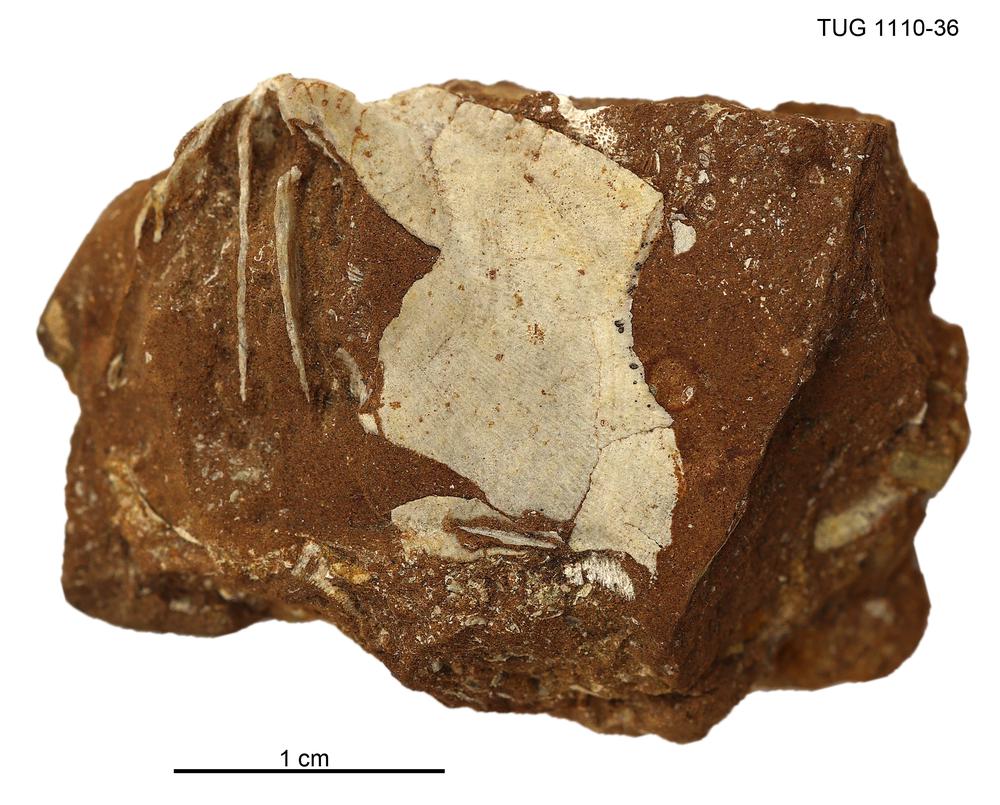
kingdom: Animalia
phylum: Brachiopoda
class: Rhynchonellata
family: Porambonitidae
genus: Porambonites
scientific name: Porambonites
